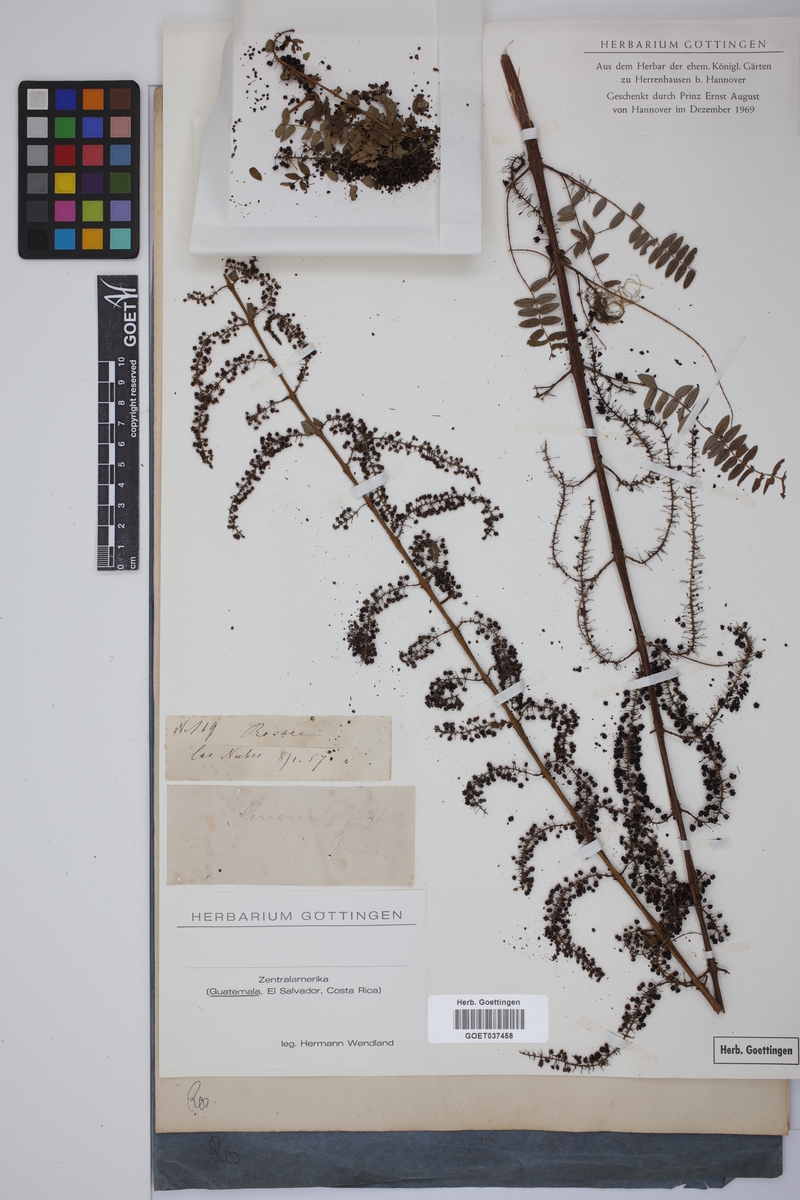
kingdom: Plantae
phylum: Tracheophyta
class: Magnoliopsida
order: Cucurbitales
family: Coriariaceae
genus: Coriaria
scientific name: Coriaria microphylla
